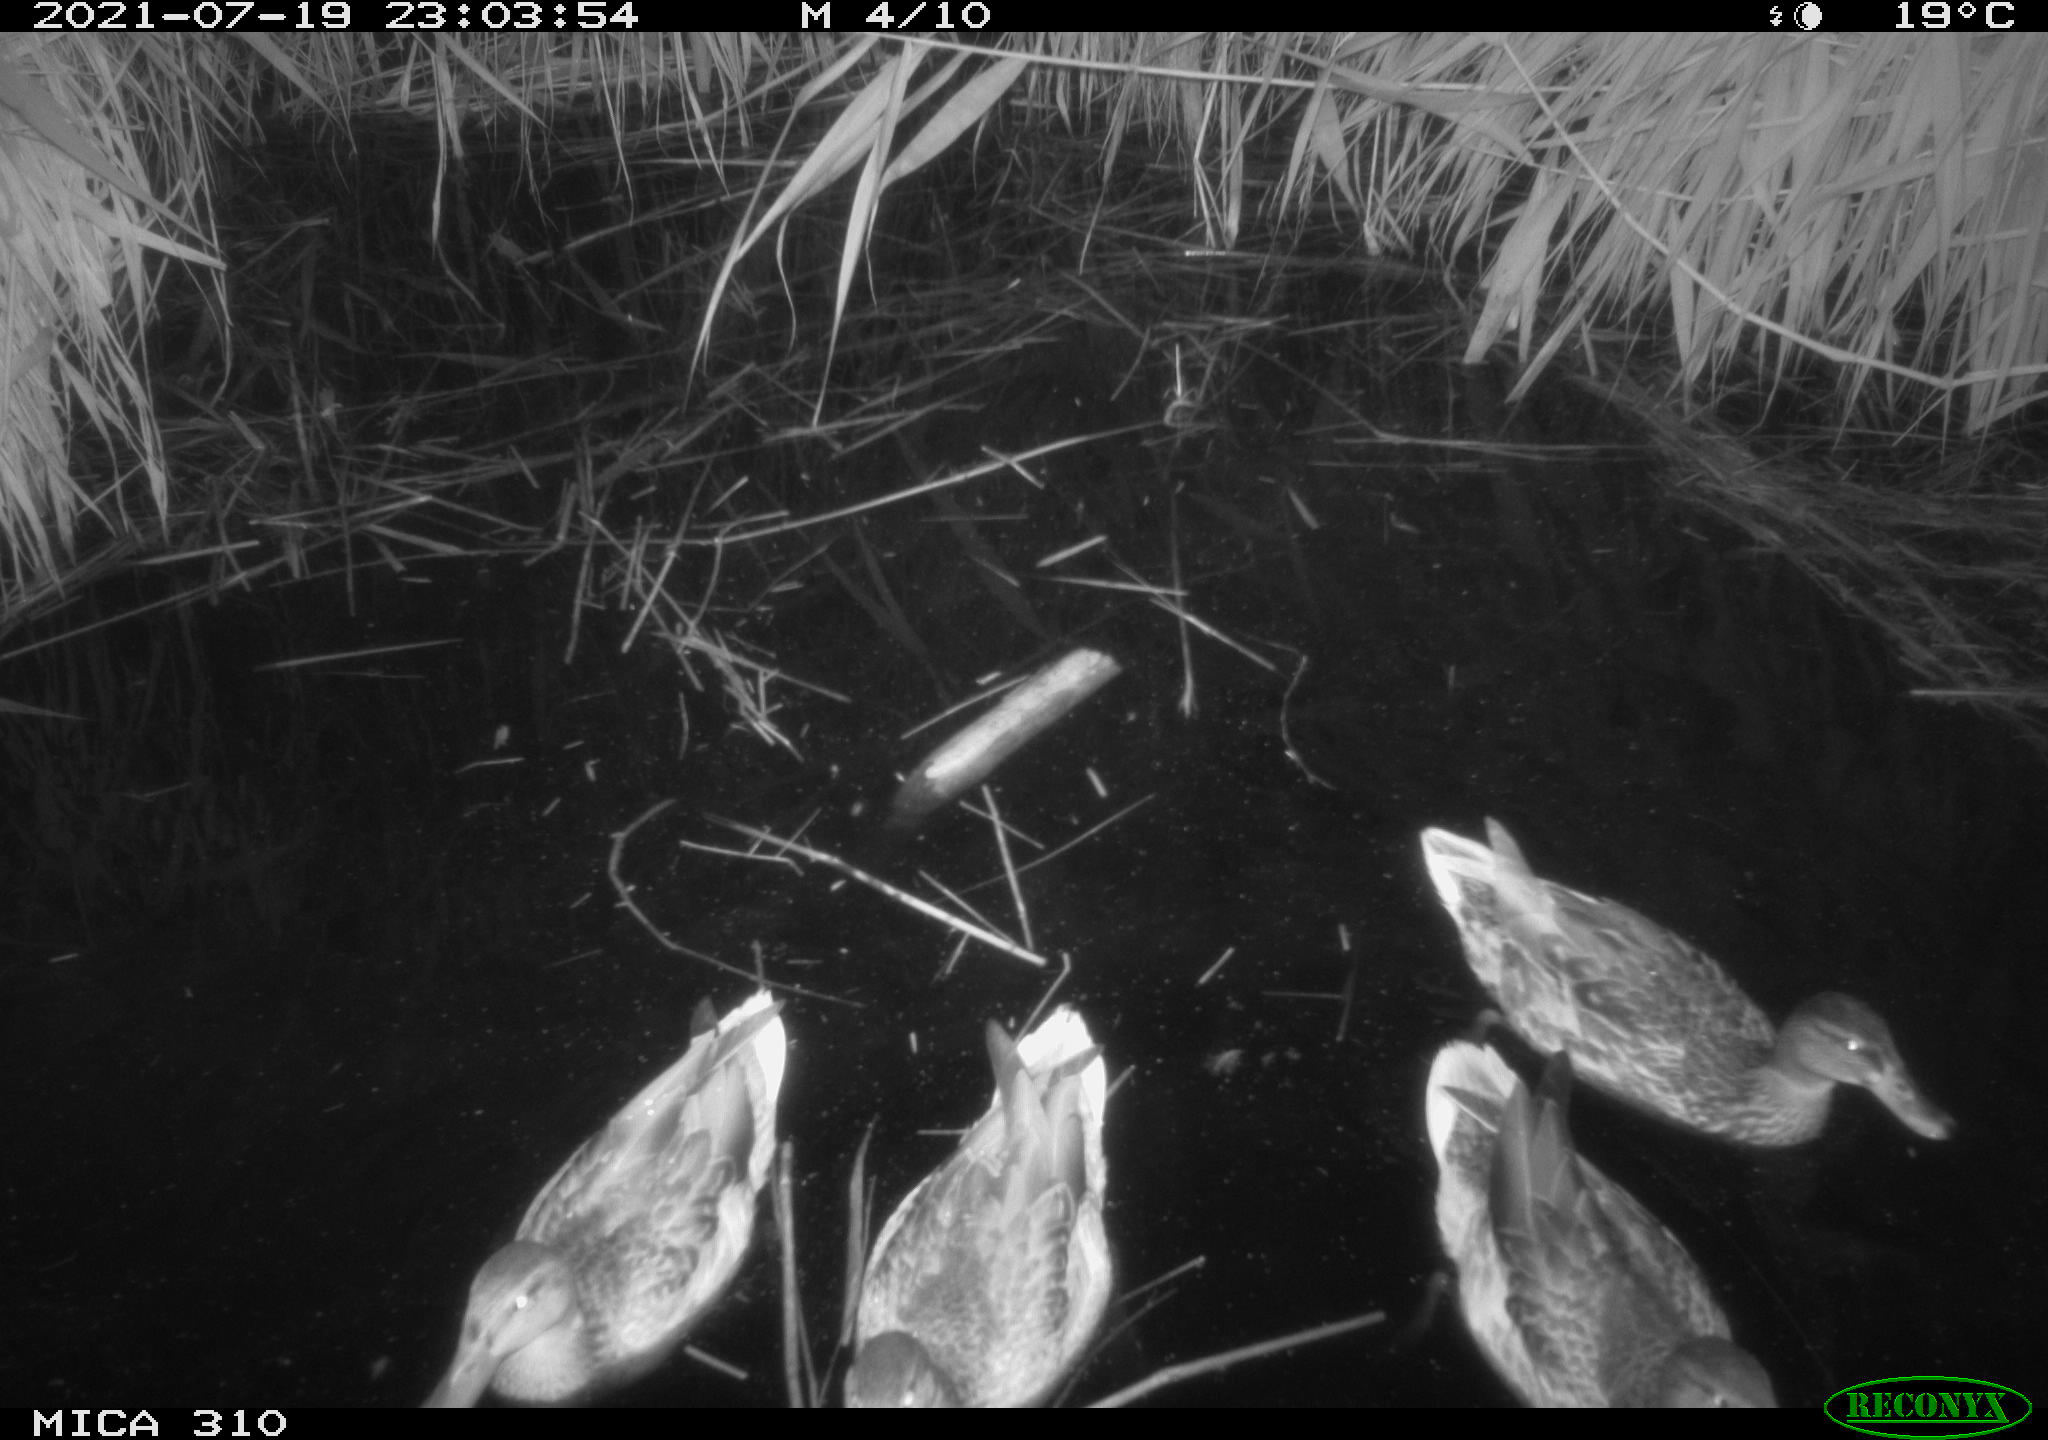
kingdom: Animalia
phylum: Chordata
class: Aves
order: Anseriformes
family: Anatidae
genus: Anas
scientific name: Anas platyrhynchos
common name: Mallard
